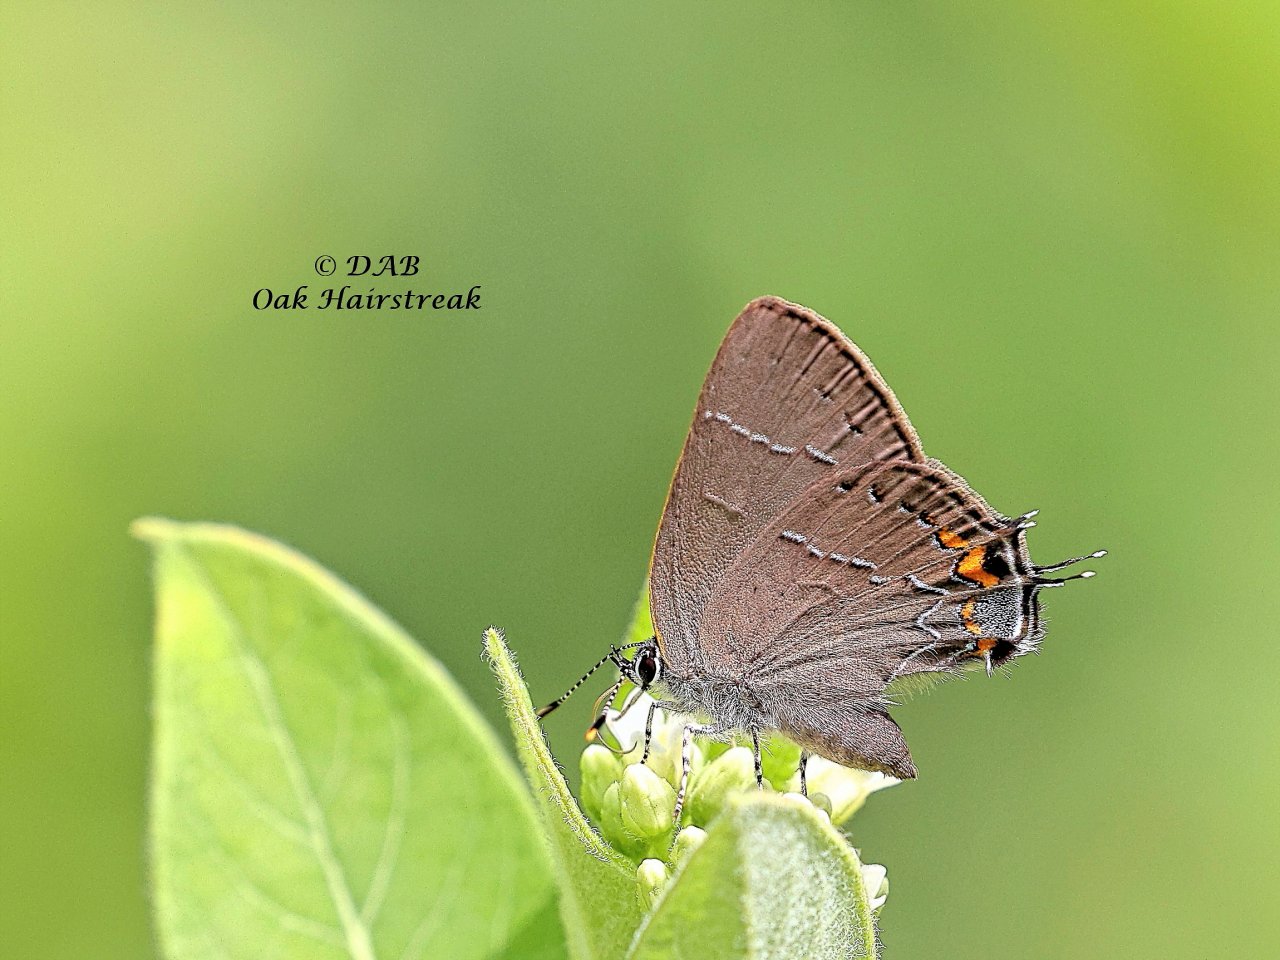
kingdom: Animalia
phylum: Arthropoda
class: Insecta
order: Lepidoptera
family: Lycaenidae
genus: Fixsenia
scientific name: Fixsenia favonius
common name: Oak Hairstreak
